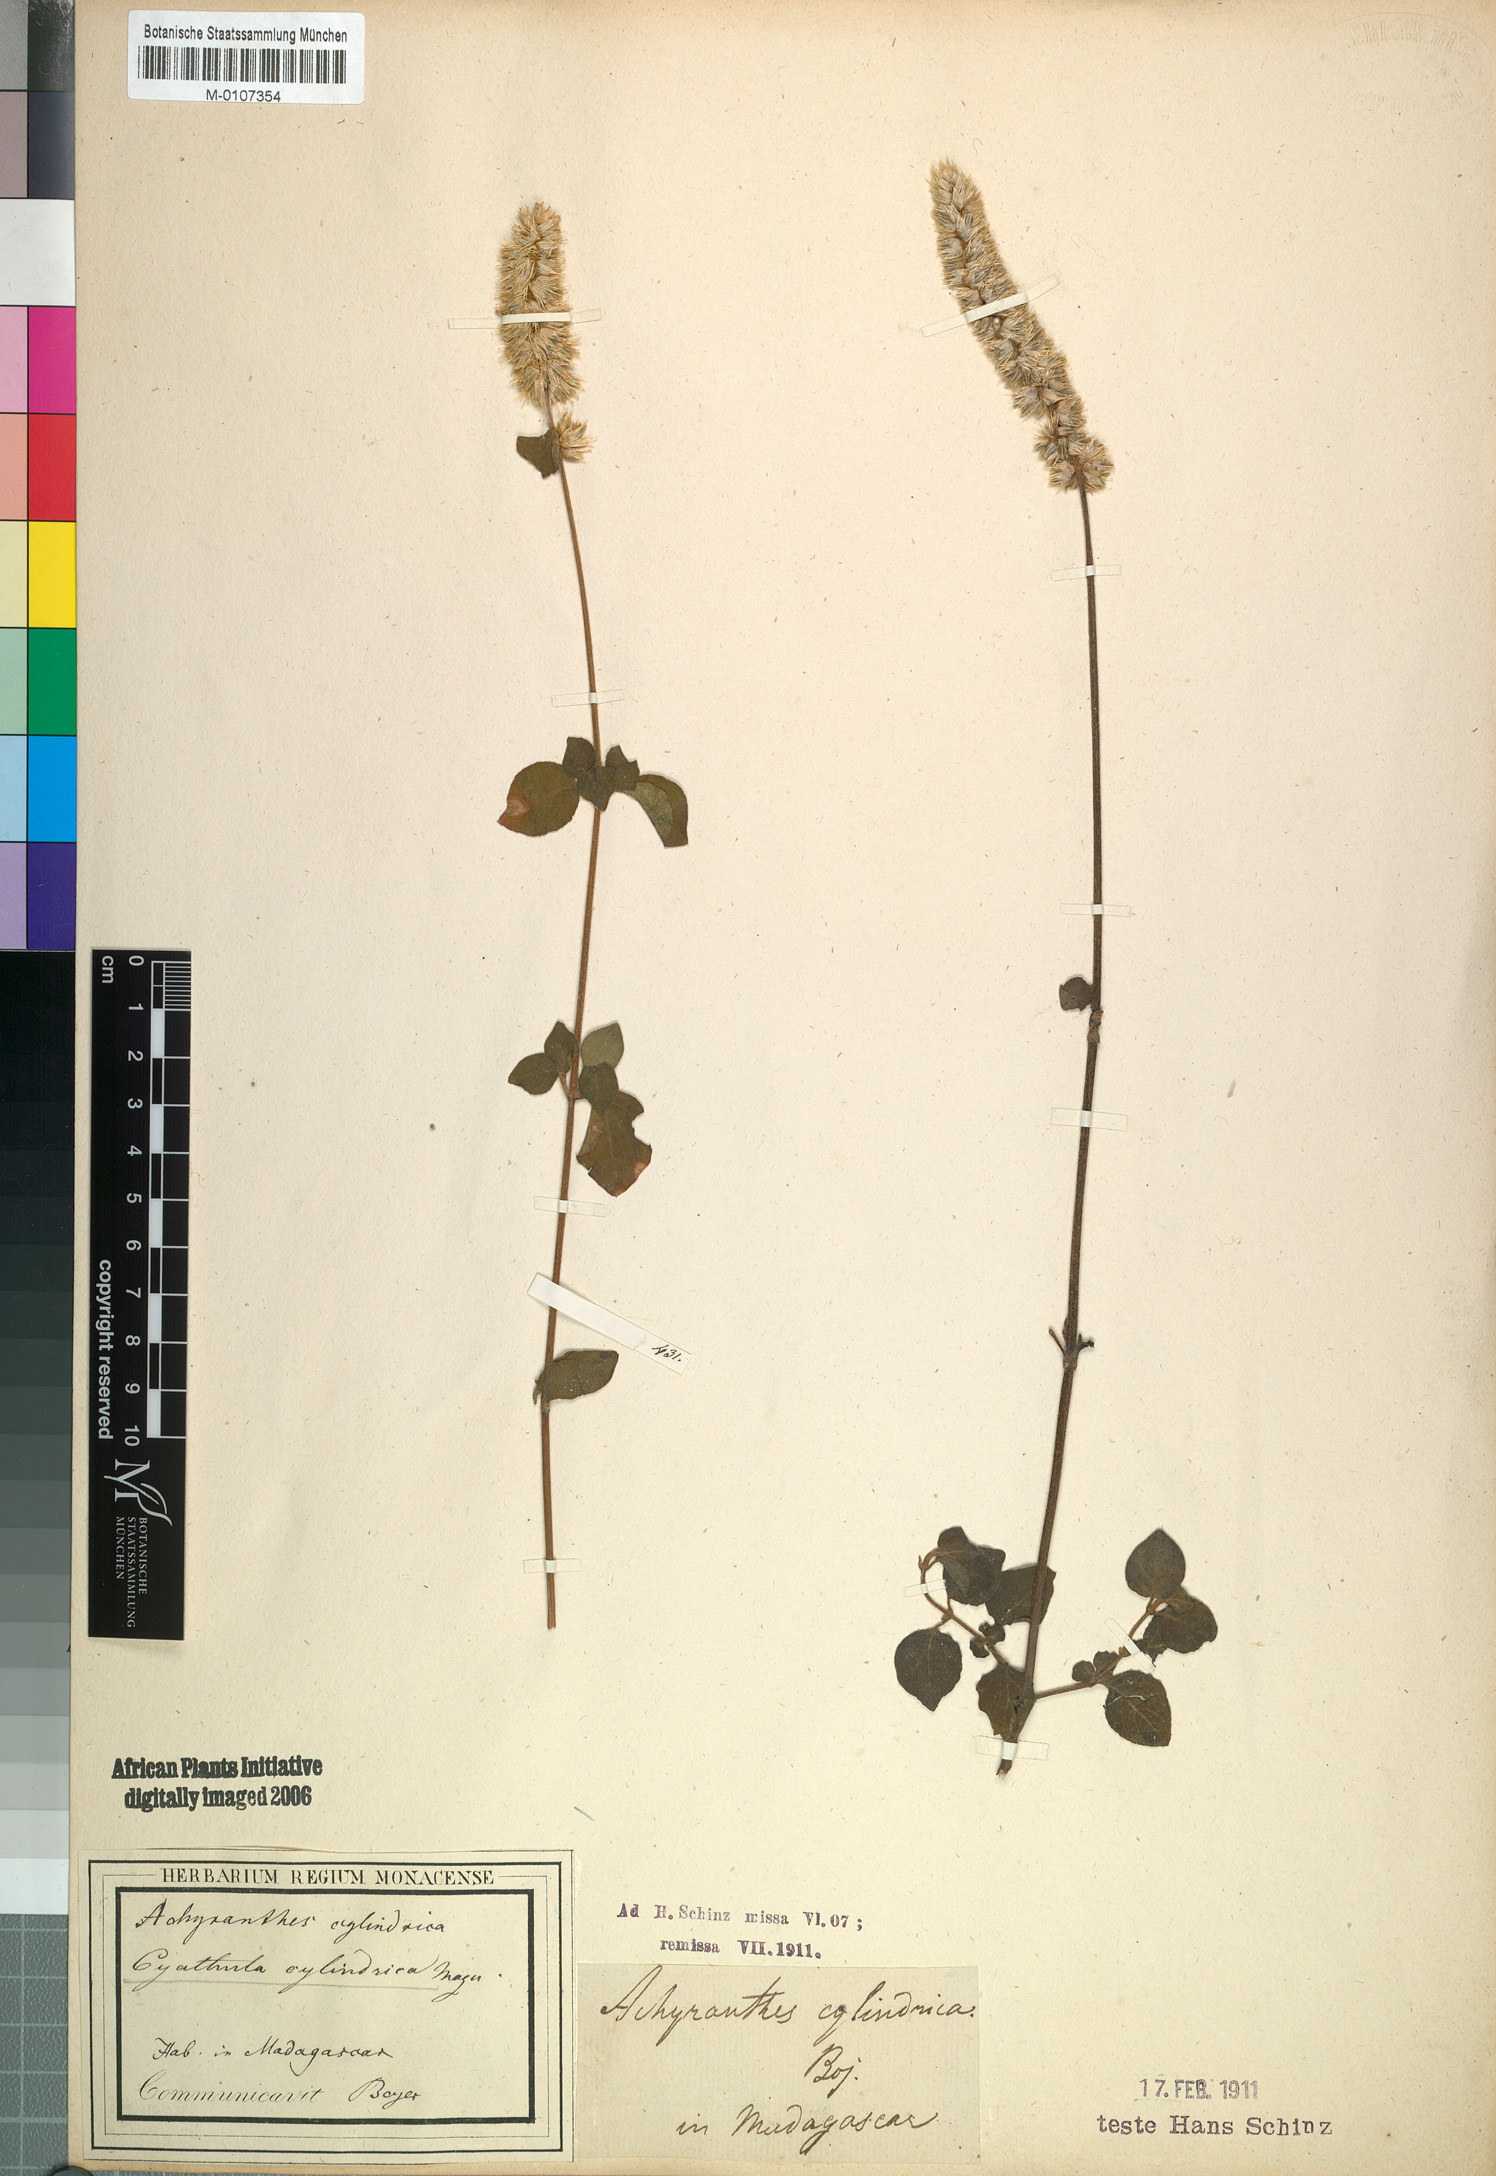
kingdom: Plantae
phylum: Tracheophyta
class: Magnoliopsida
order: Caryophyllales
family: Amaranthaceae
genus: Cyathula
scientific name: Cyathula cylindrica
